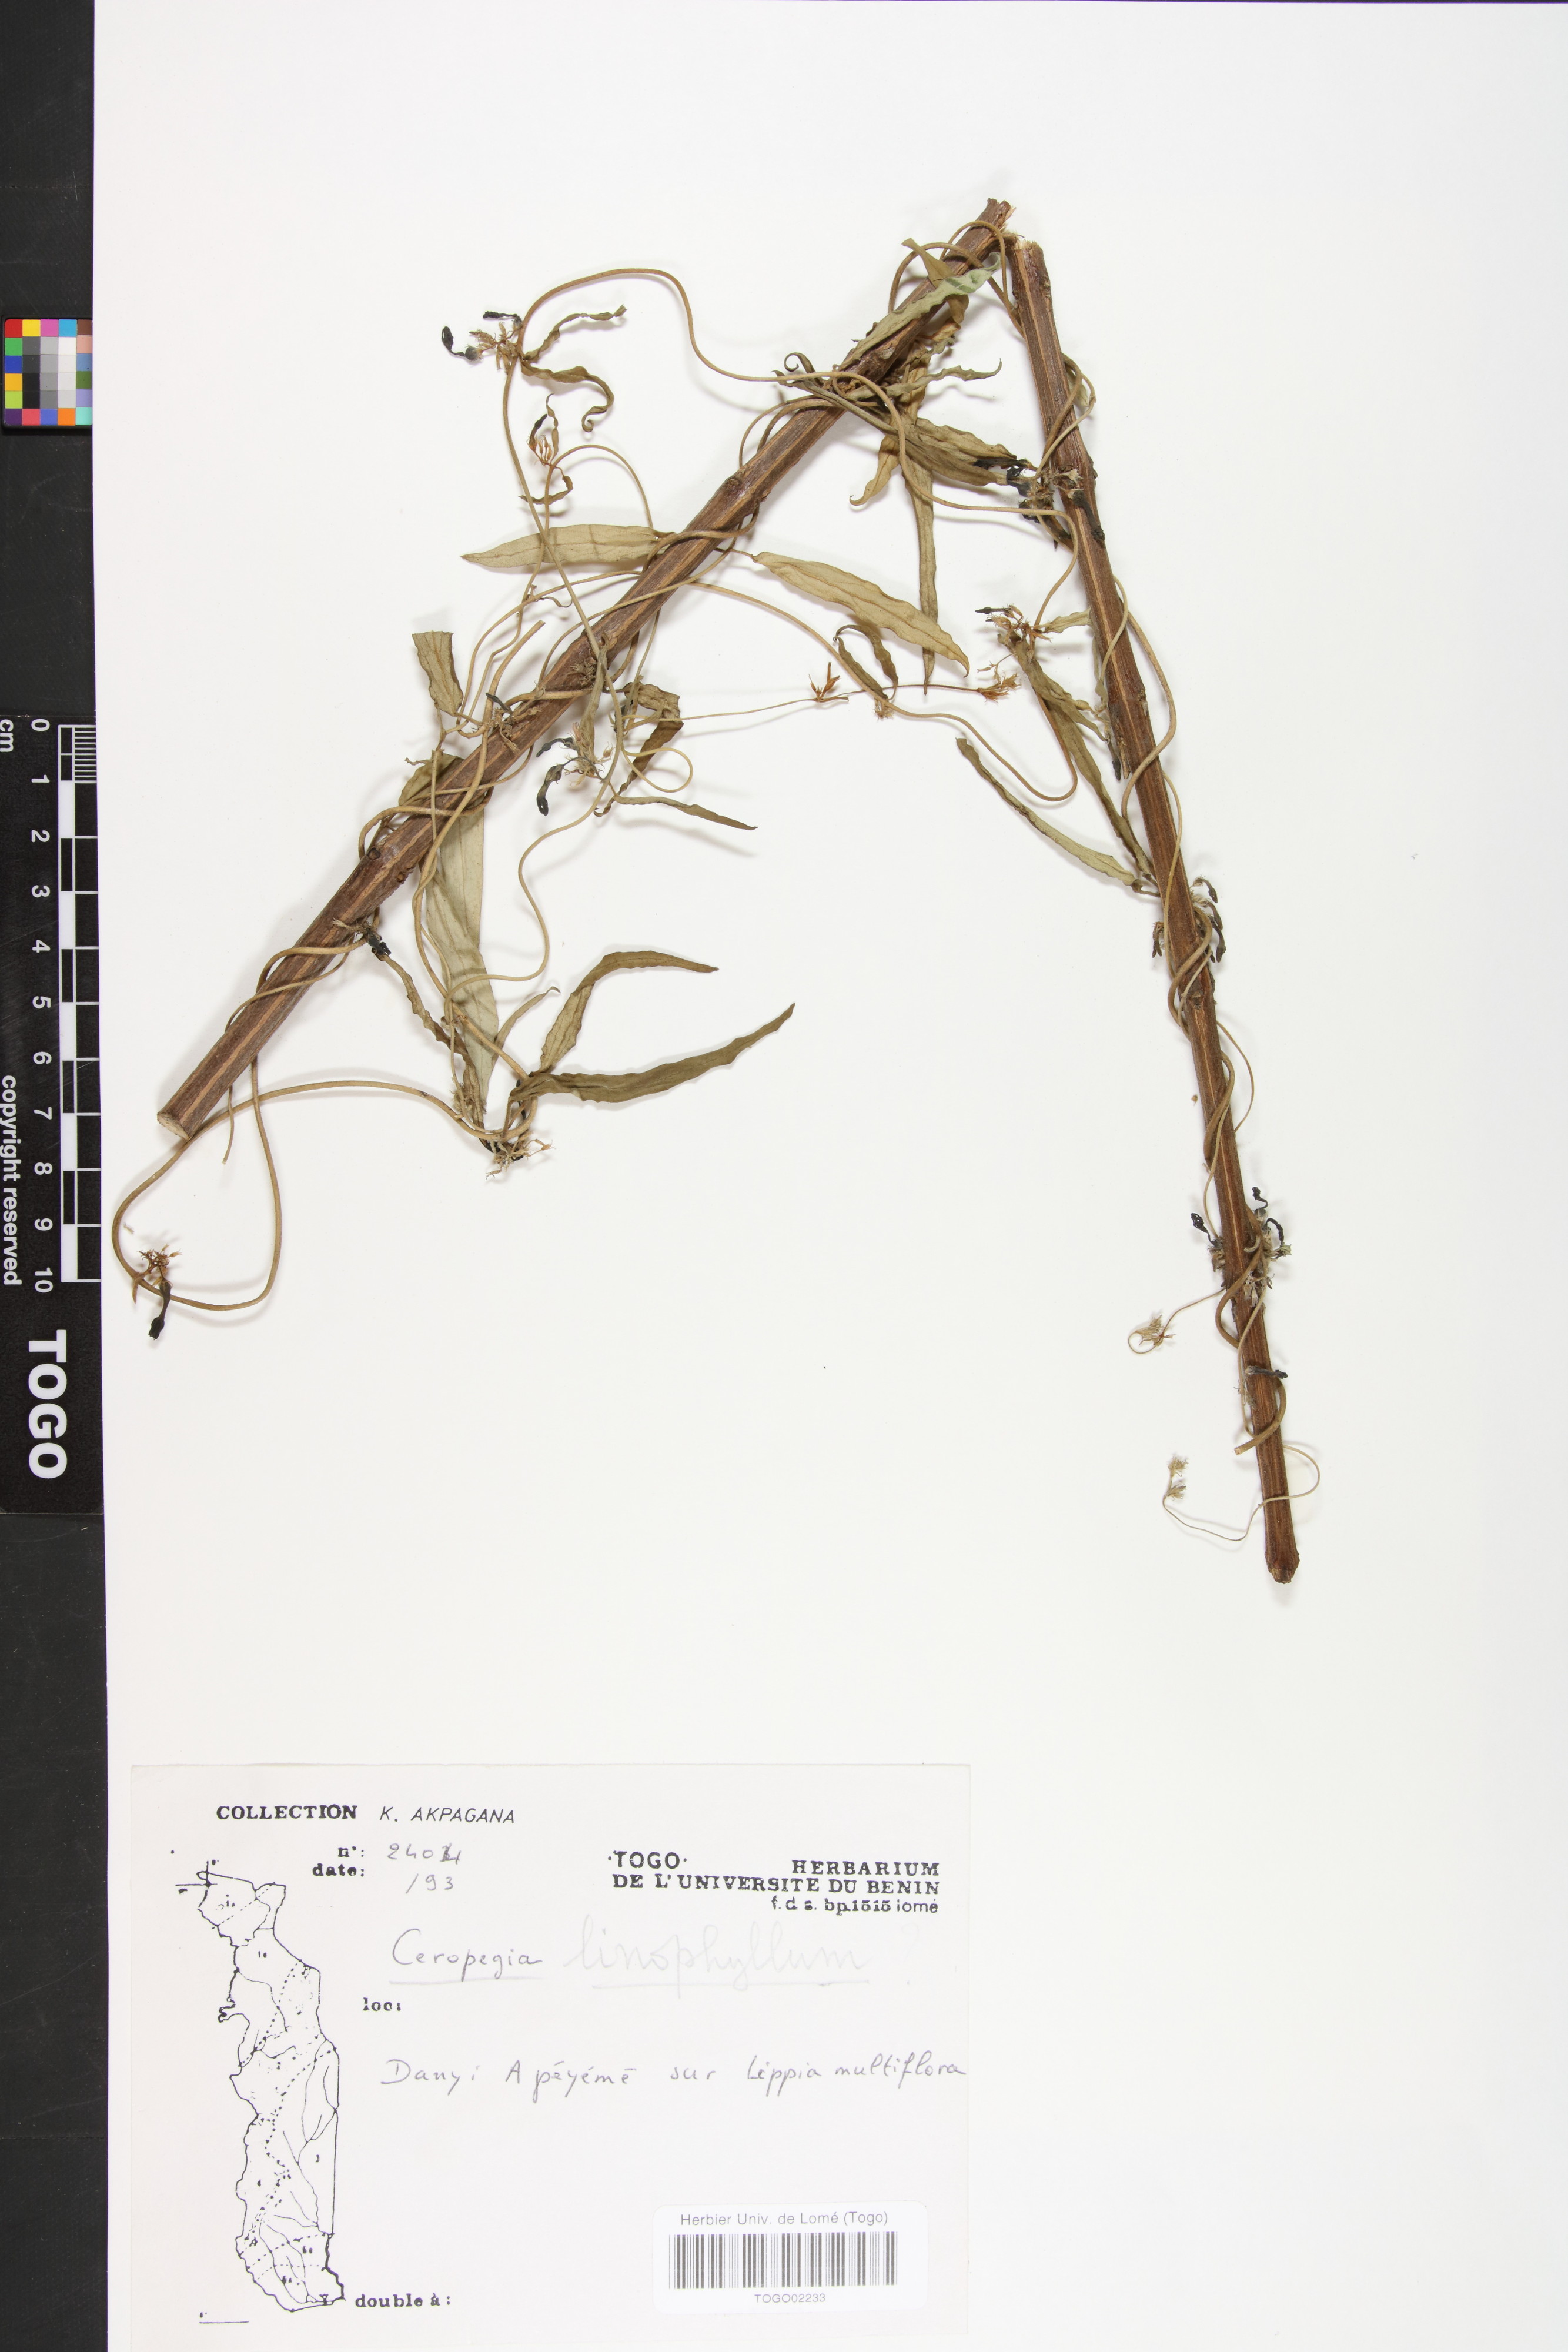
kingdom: Plantae
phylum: Tracheophyta
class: Magnoliopsida
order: Gentianales
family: Apocynaceae
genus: Ceropegia
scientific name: Ceropegia linophylla
